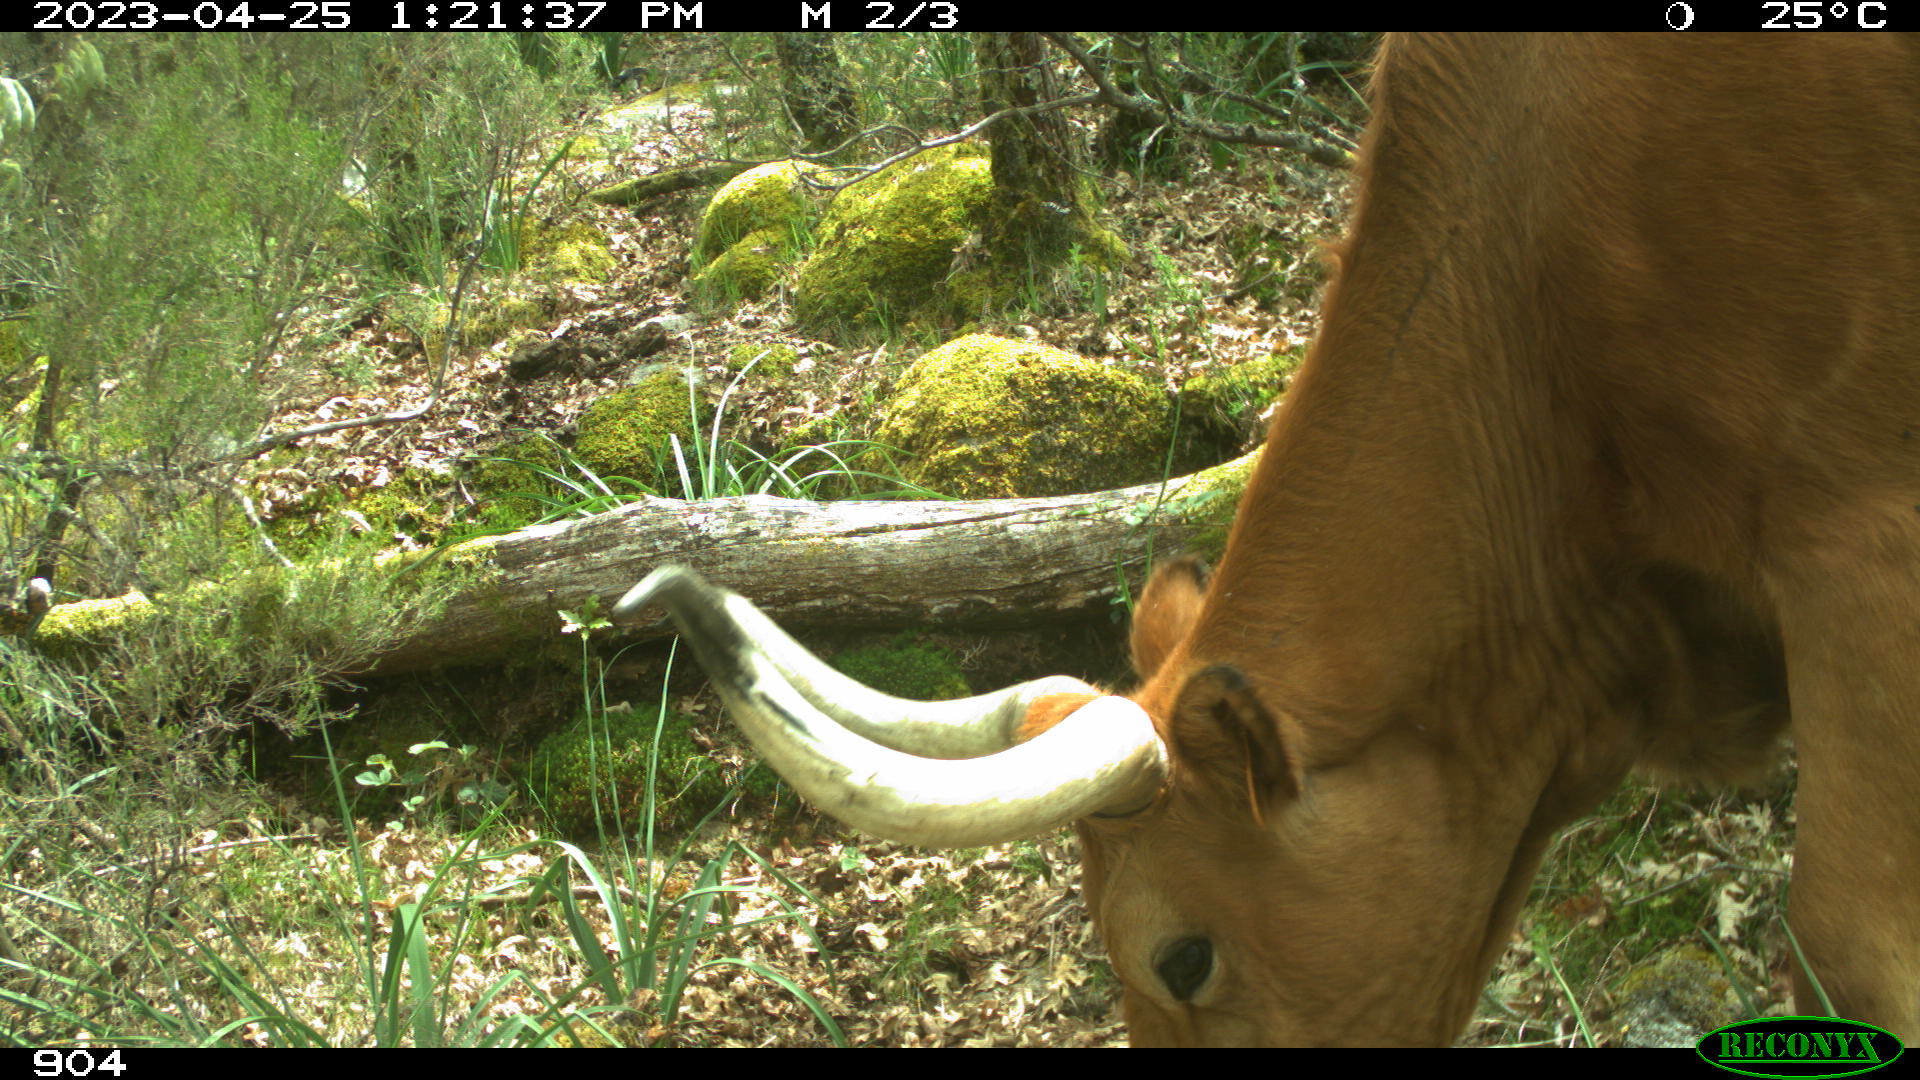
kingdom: Animalia
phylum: Chordata
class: Mammalia
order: Artiodactyla
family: Bovidae
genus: Bos
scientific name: Bos taurus
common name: Domesticated cattle
